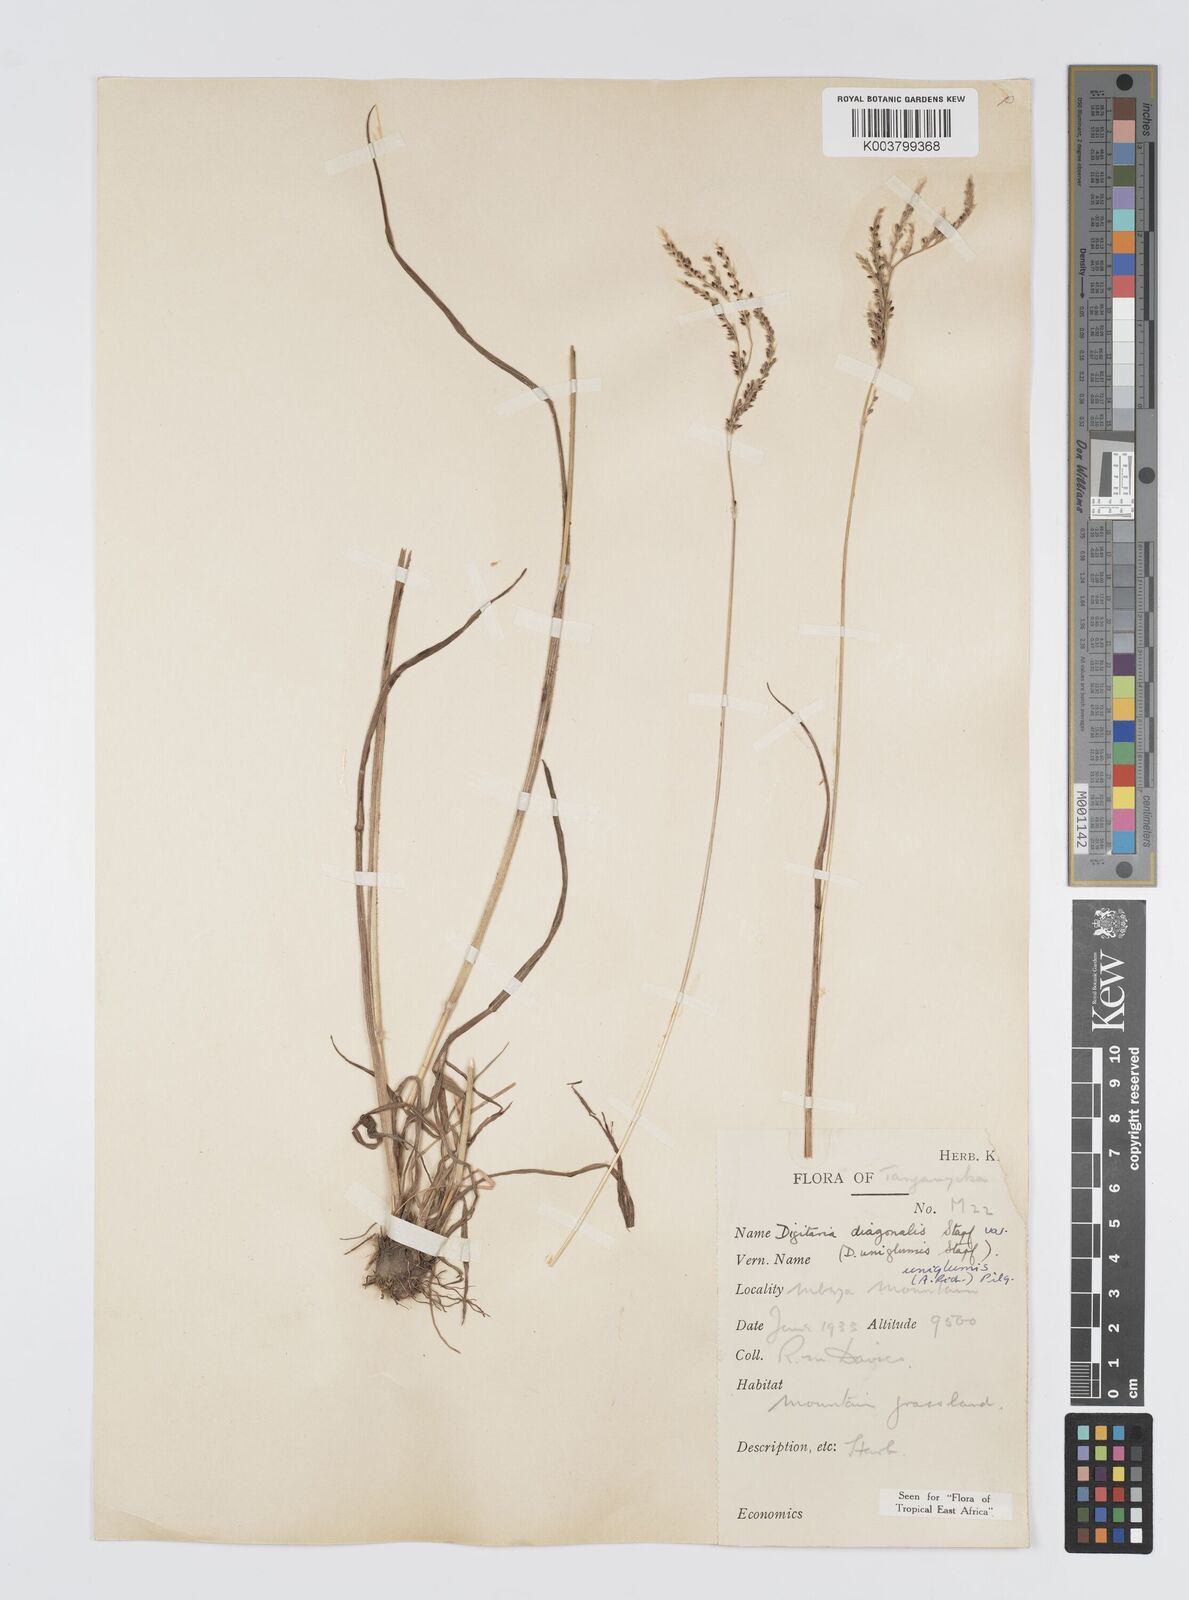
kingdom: Plantae
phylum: Tracheophyta
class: Liliopsida
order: Poales
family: Poaceae
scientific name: Poaceae
